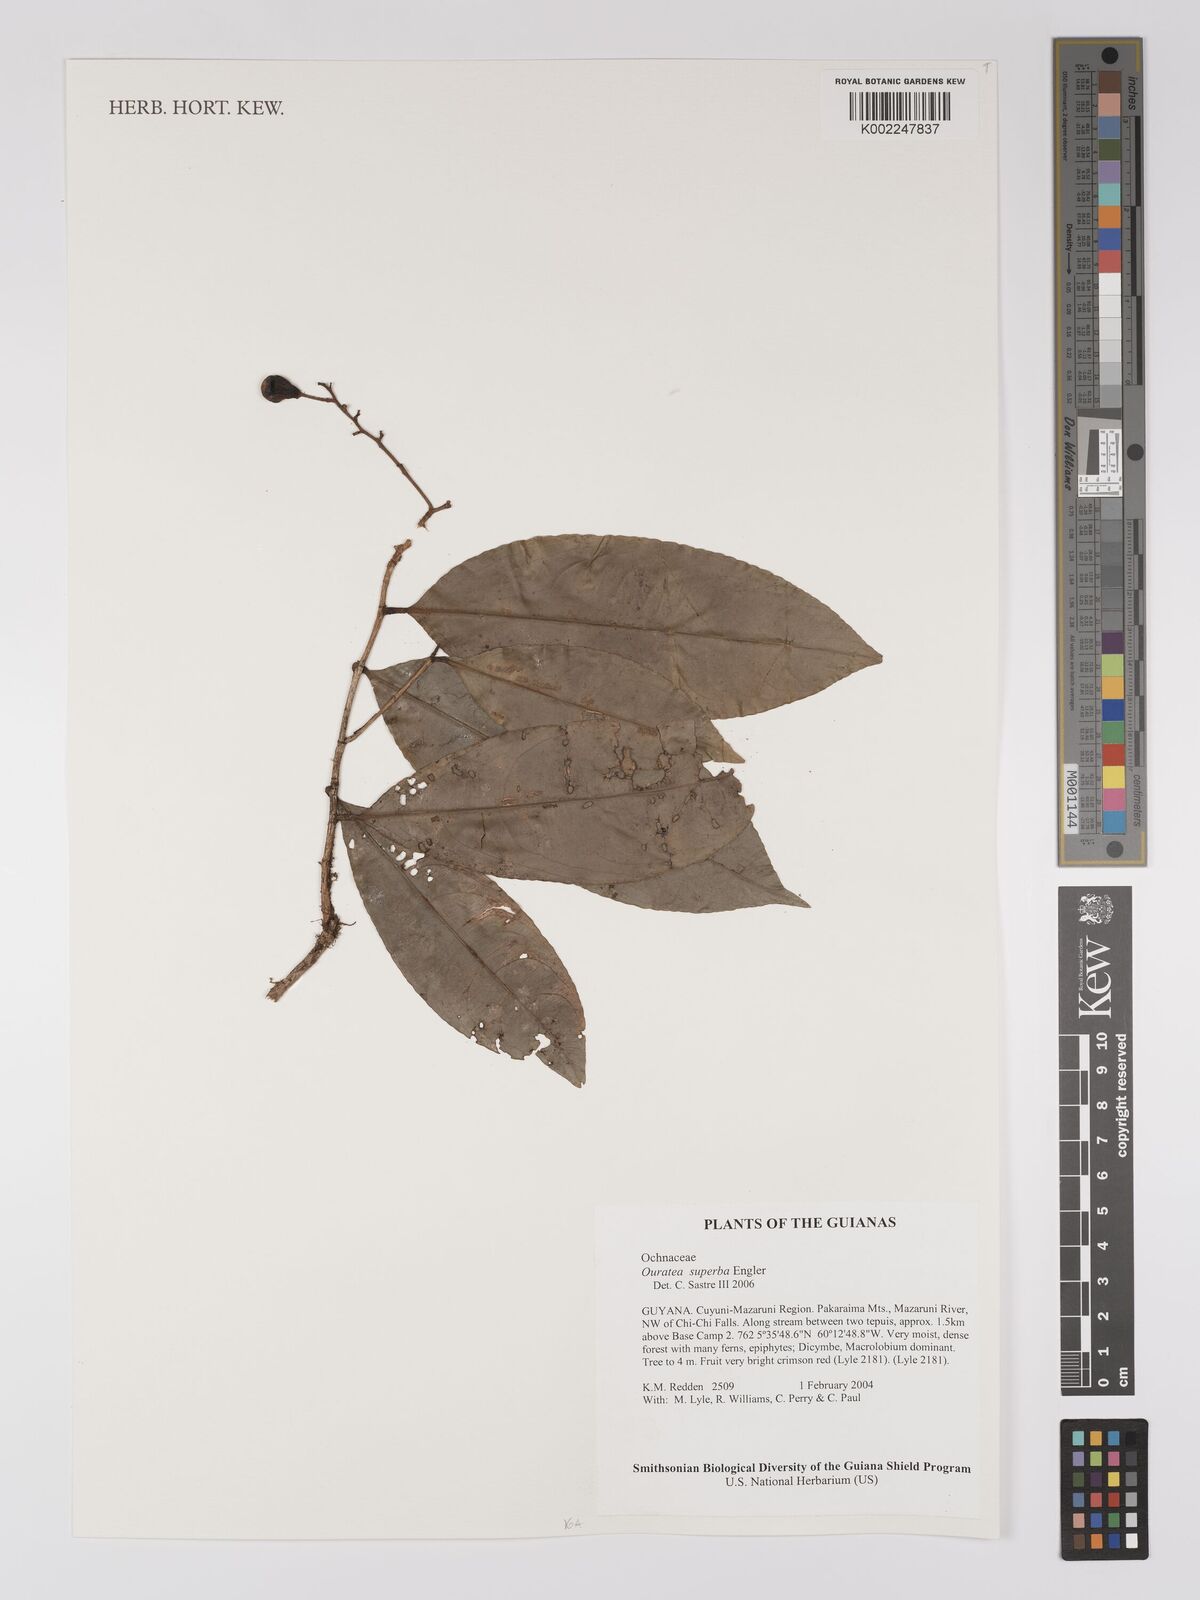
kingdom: Plantae
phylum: Tracheophyta
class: Magnoliopsida
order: Malpighiales
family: Ochnaceae
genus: Ouratea
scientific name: Ouratea superba
